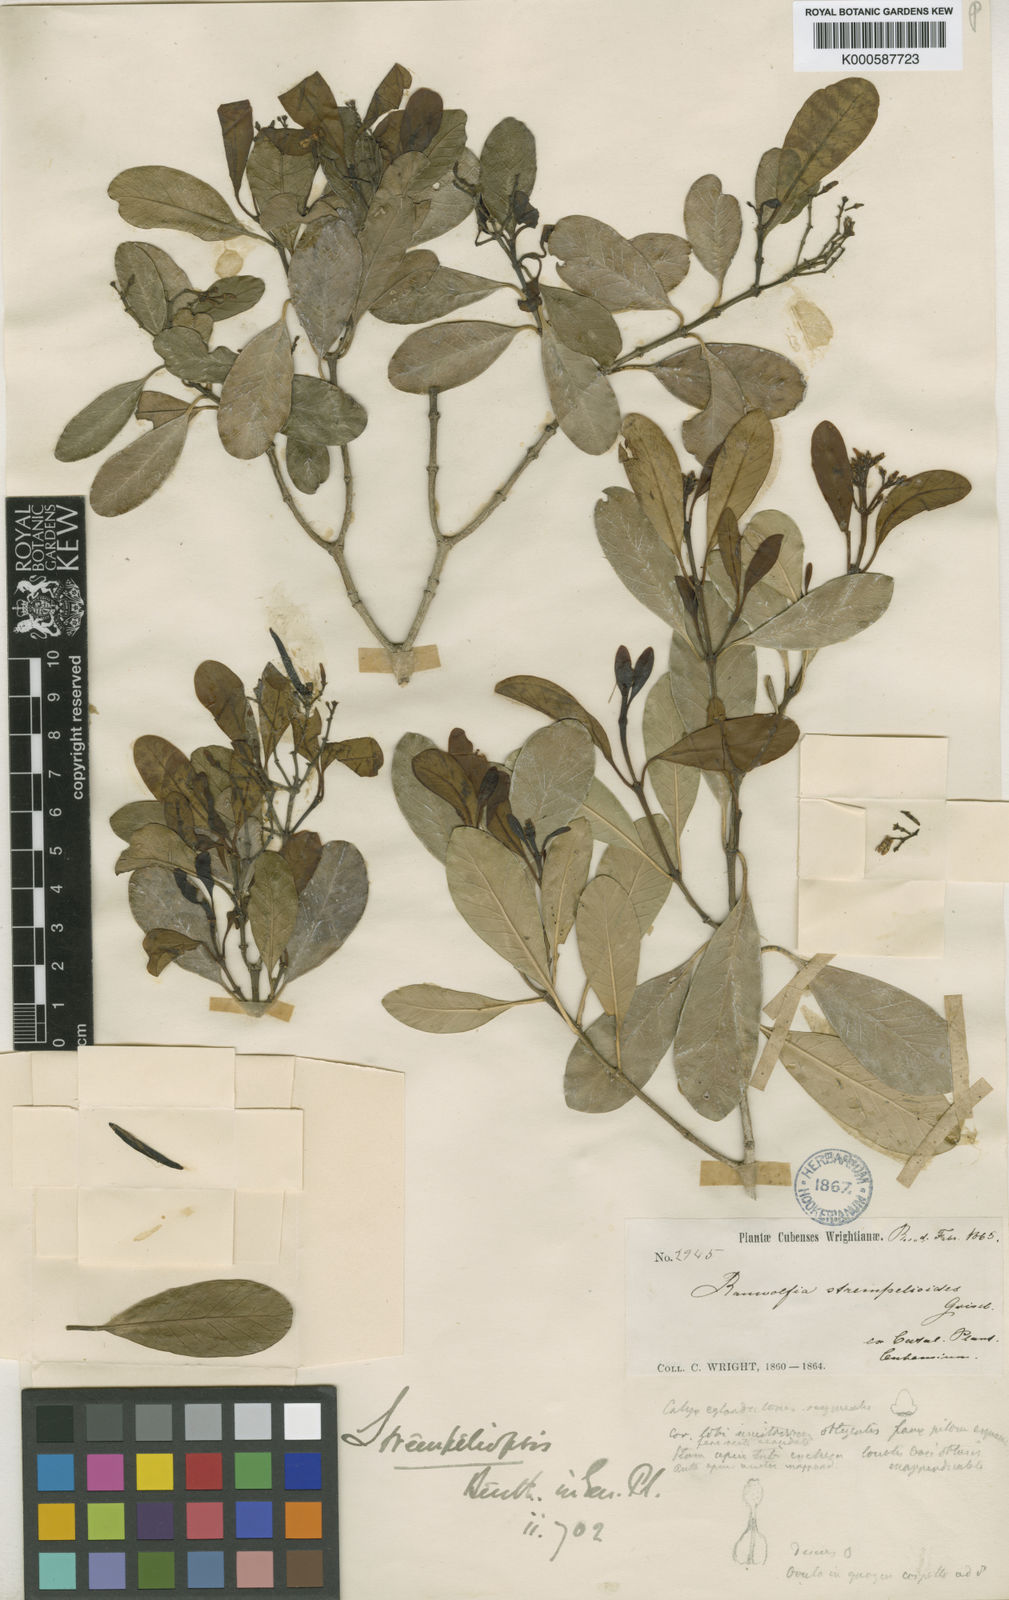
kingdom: Plantae
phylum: Tracheophyta
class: Magnoliopsida
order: Gentianales
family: Apocynaceae
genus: Strempeliopsis
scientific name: Strempeliopsis
